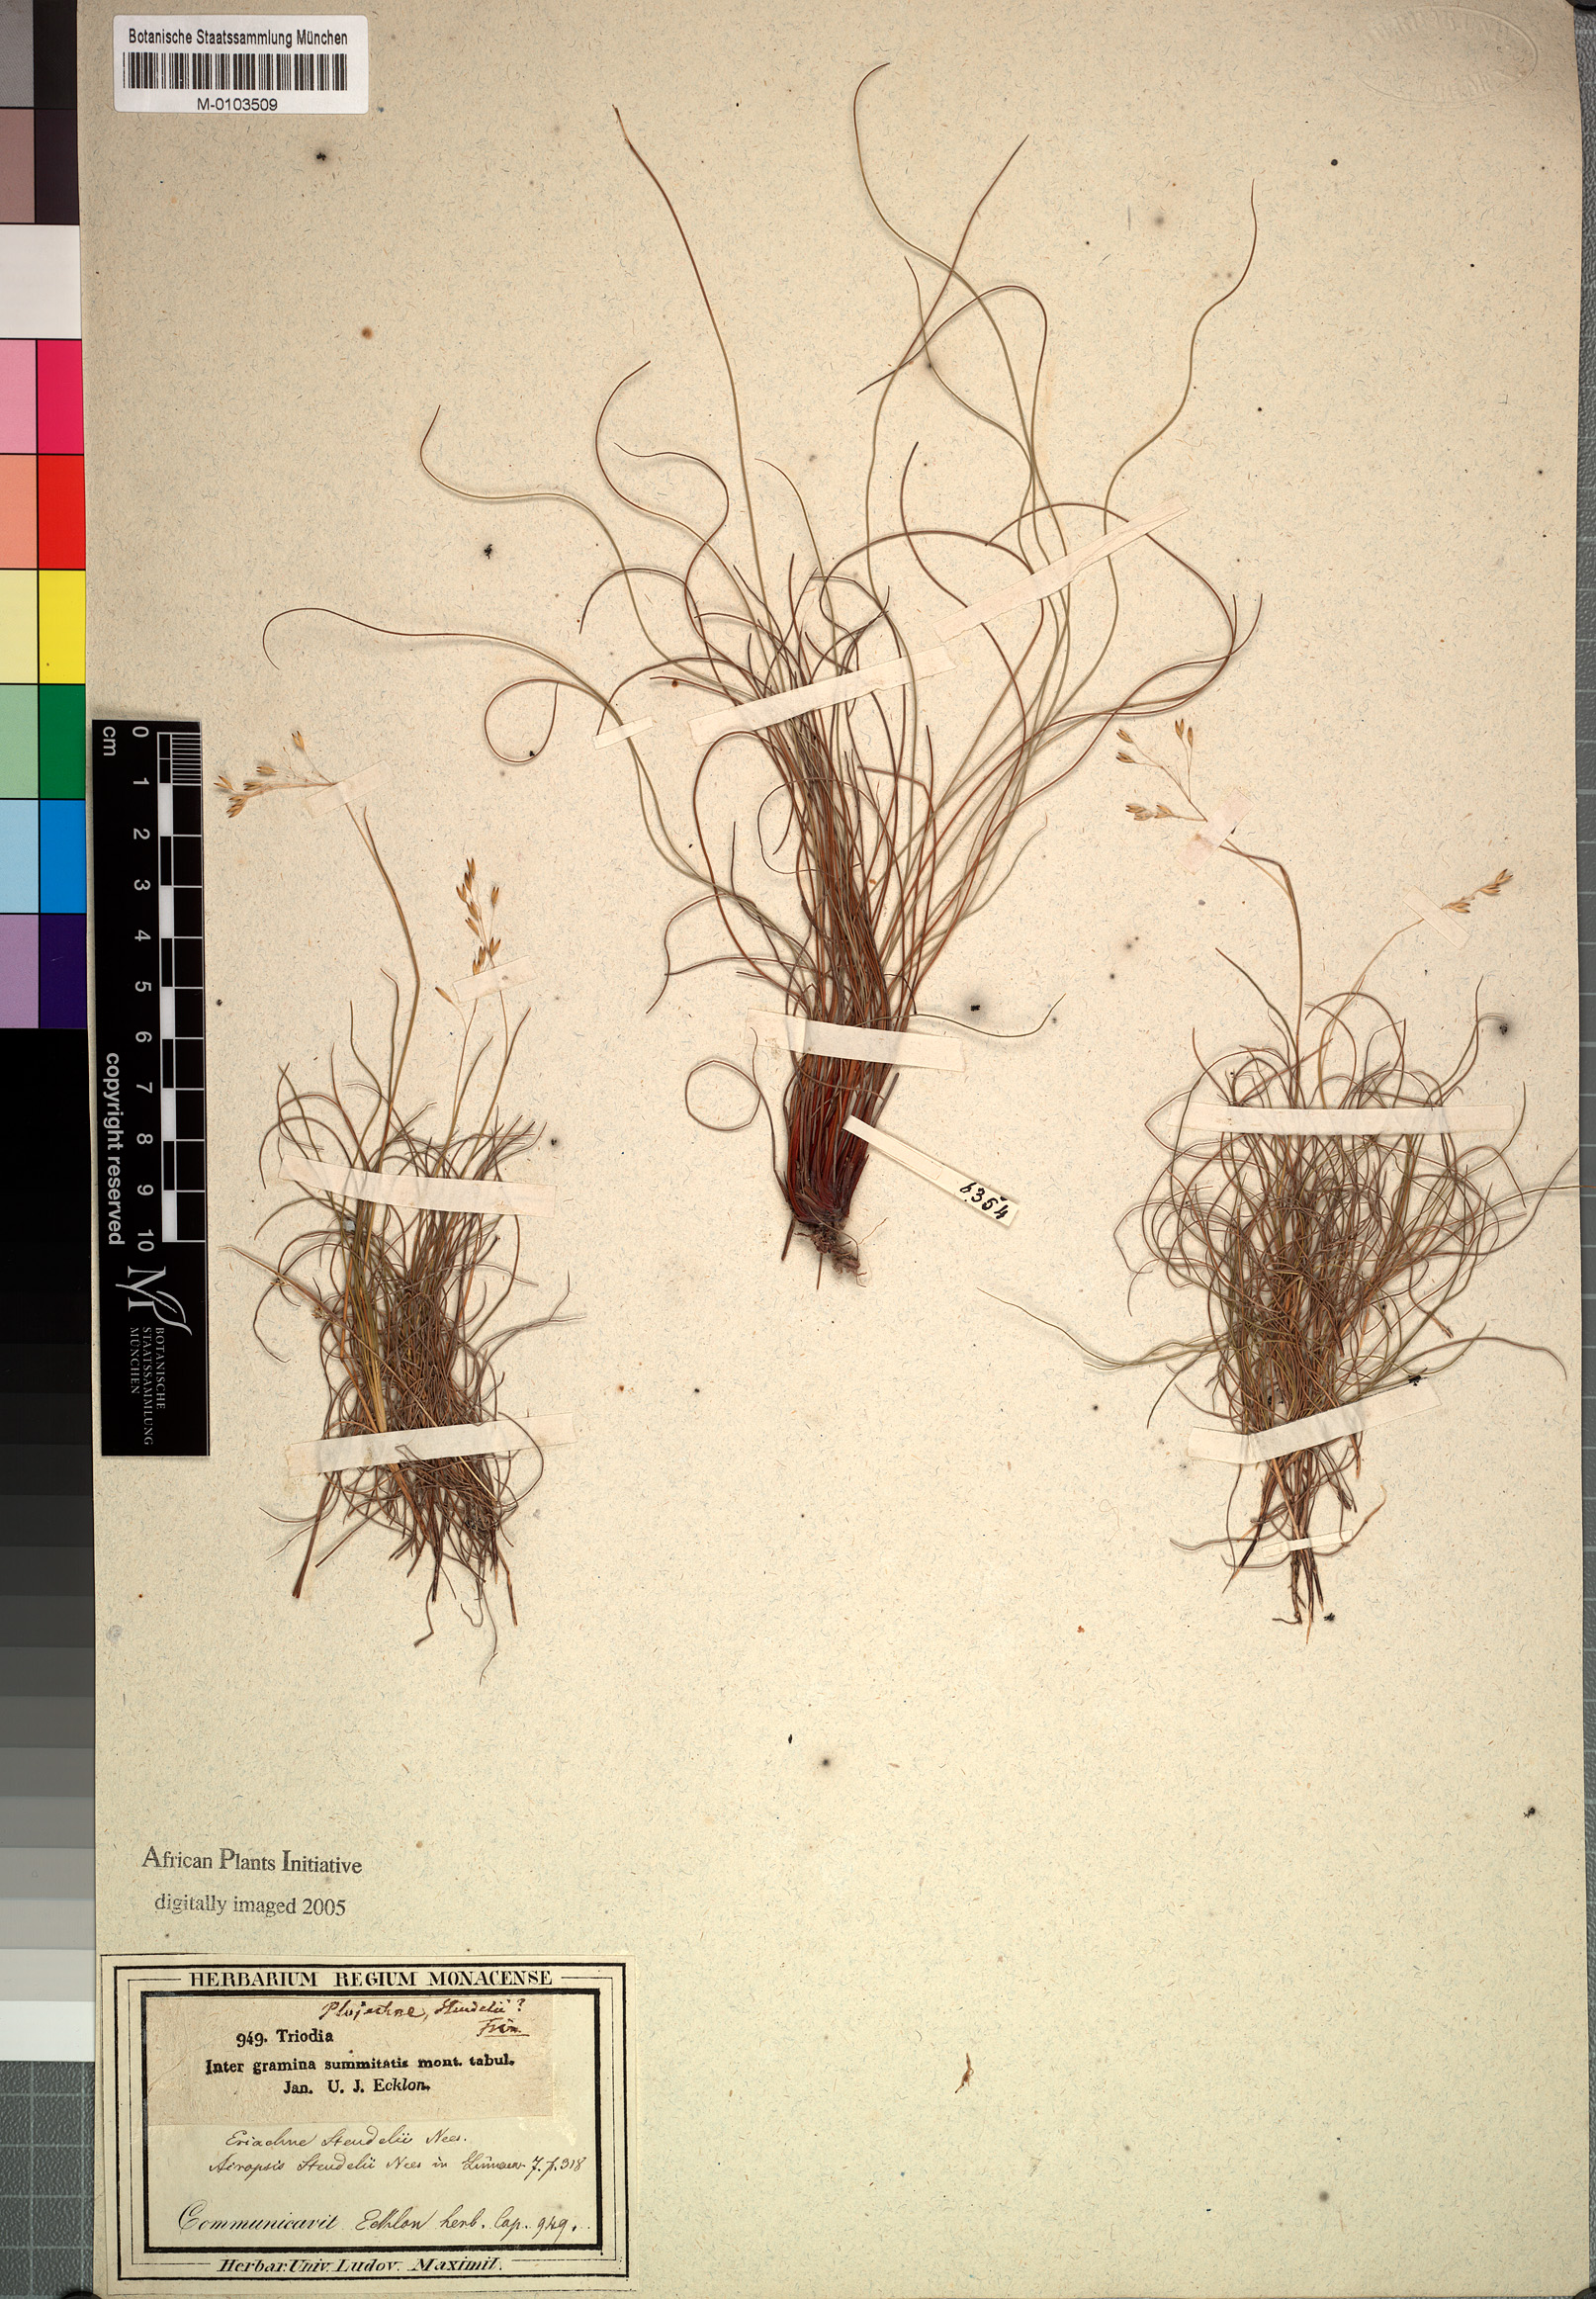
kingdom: Plantae
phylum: Tracheophyta
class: Liliopsida
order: Poales
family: Poaceae
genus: Pentameris
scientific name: Pentameris malouinensis
